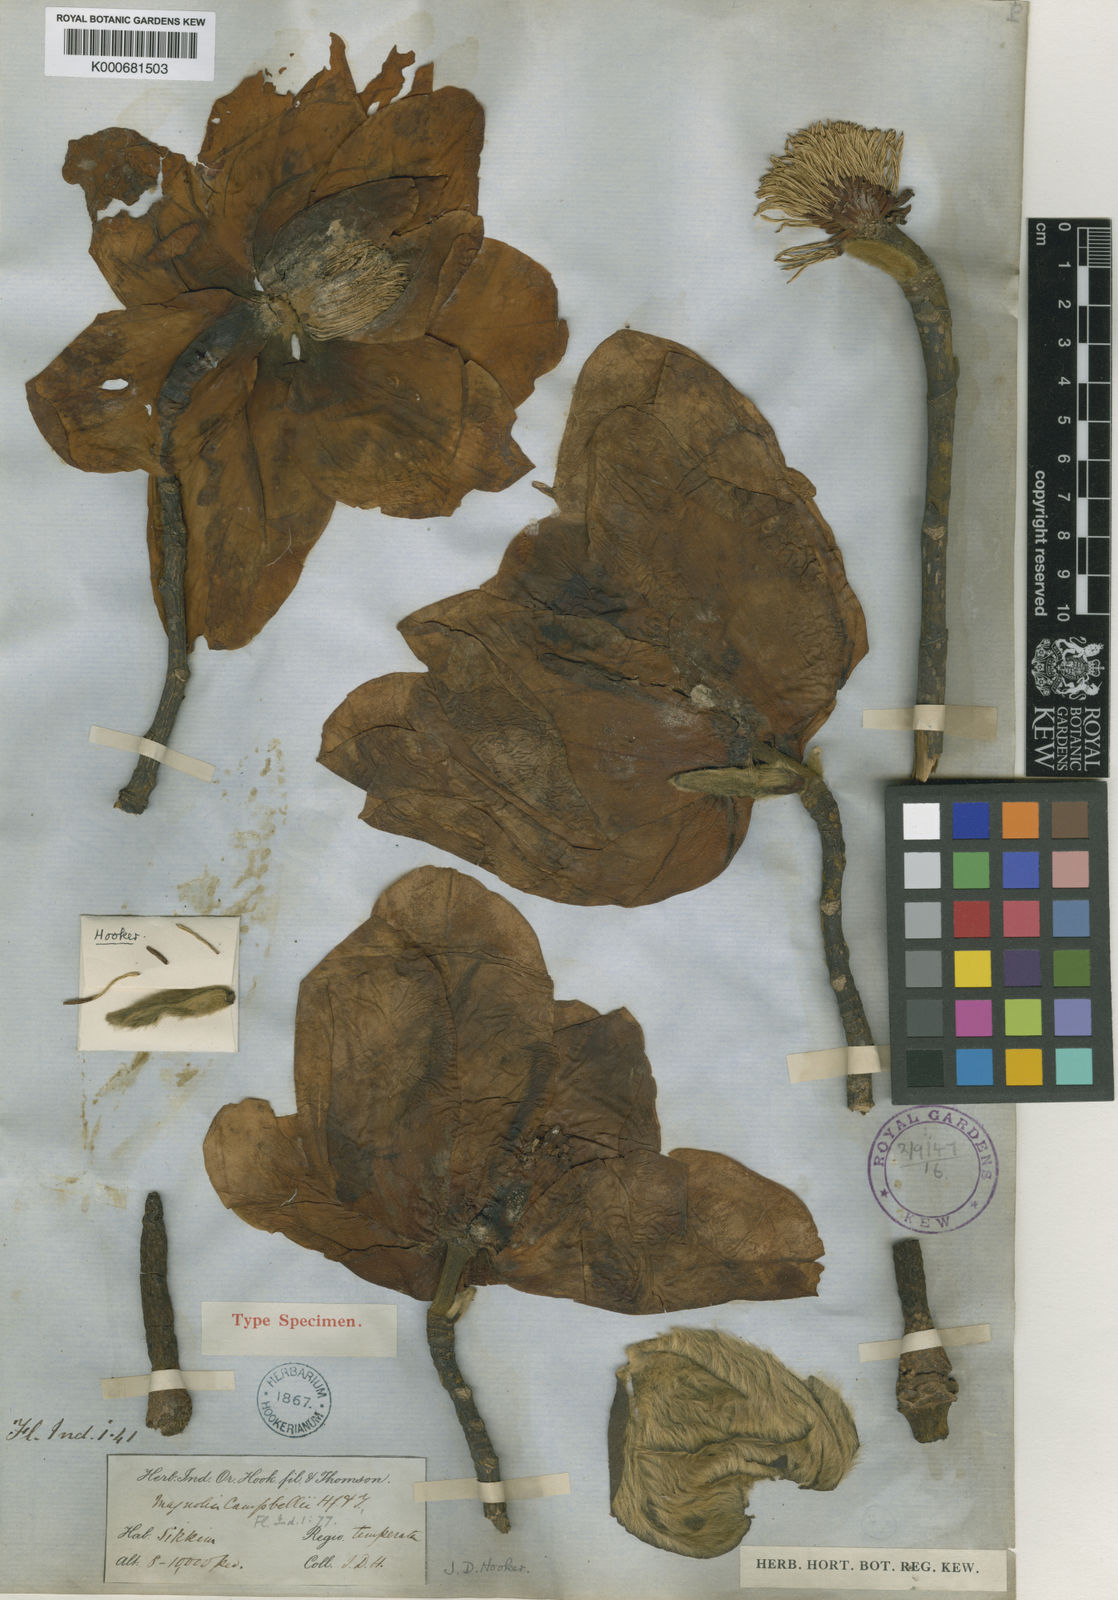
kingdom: Plantae
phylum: Tracheophyta
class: Magnoliopsida
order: Magnoliales
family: Magnoliaceae
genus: Magnolia
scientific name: Magnolia campbellii
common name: Campbell's magnolia
